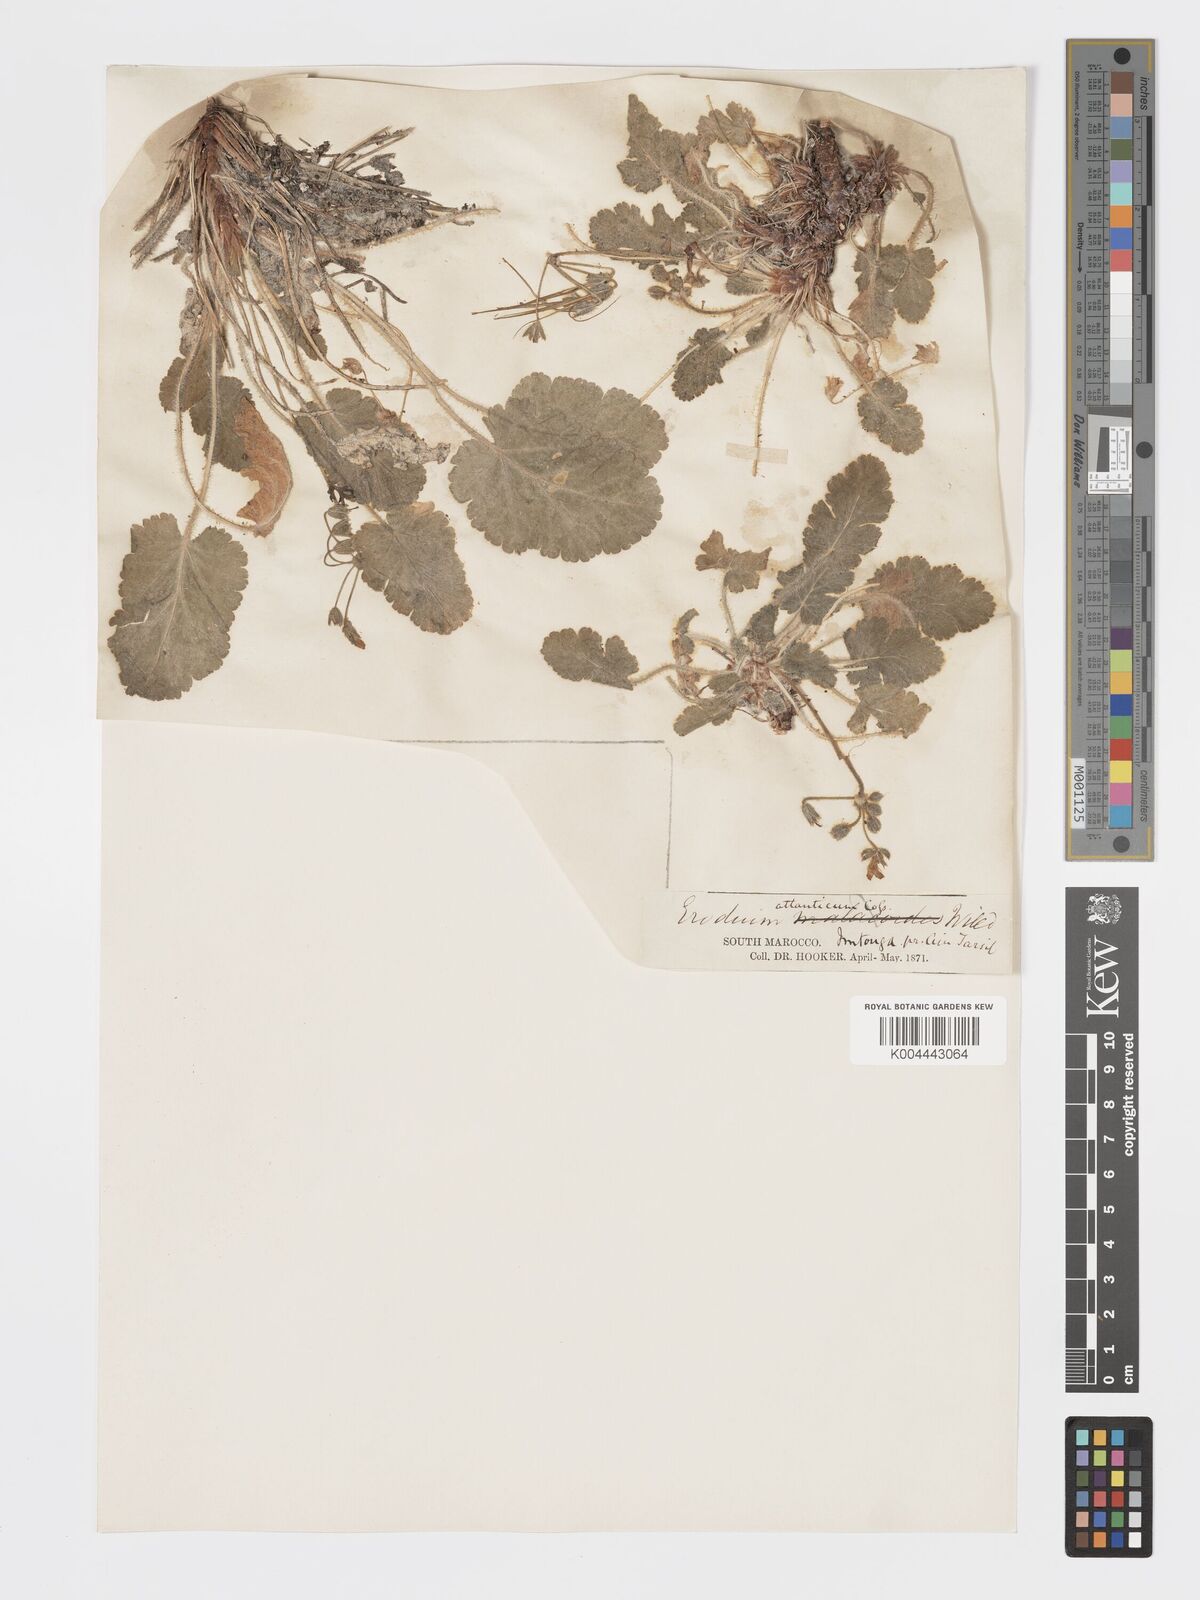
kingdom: Plantae
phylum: Tracheophyta
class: Magnoliopsida
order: Geraniales
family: Geraniaceae
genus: Erodium
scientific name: Erodium atlanticum
